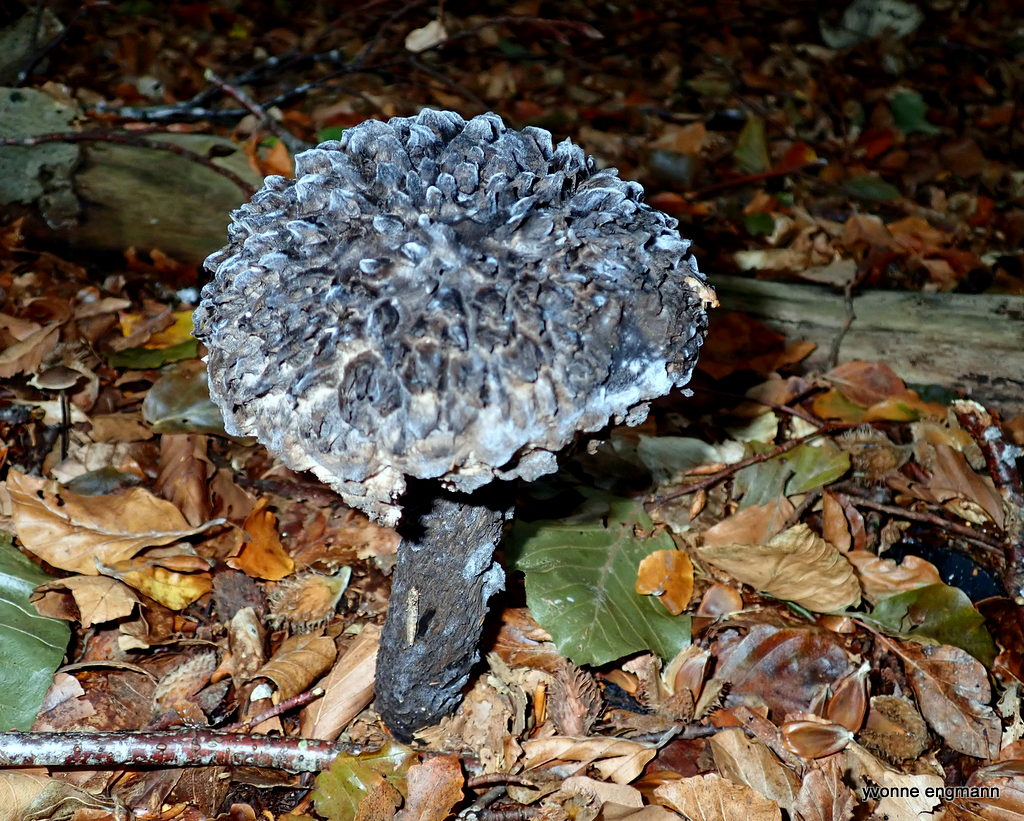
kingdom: Fungi
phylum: Basidiomycota
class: Agaricomycetes
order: Boletales
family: Boletaceae
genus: Strobilomyces
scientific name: Strobilomyces strobilaceus
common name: koglerørhat
